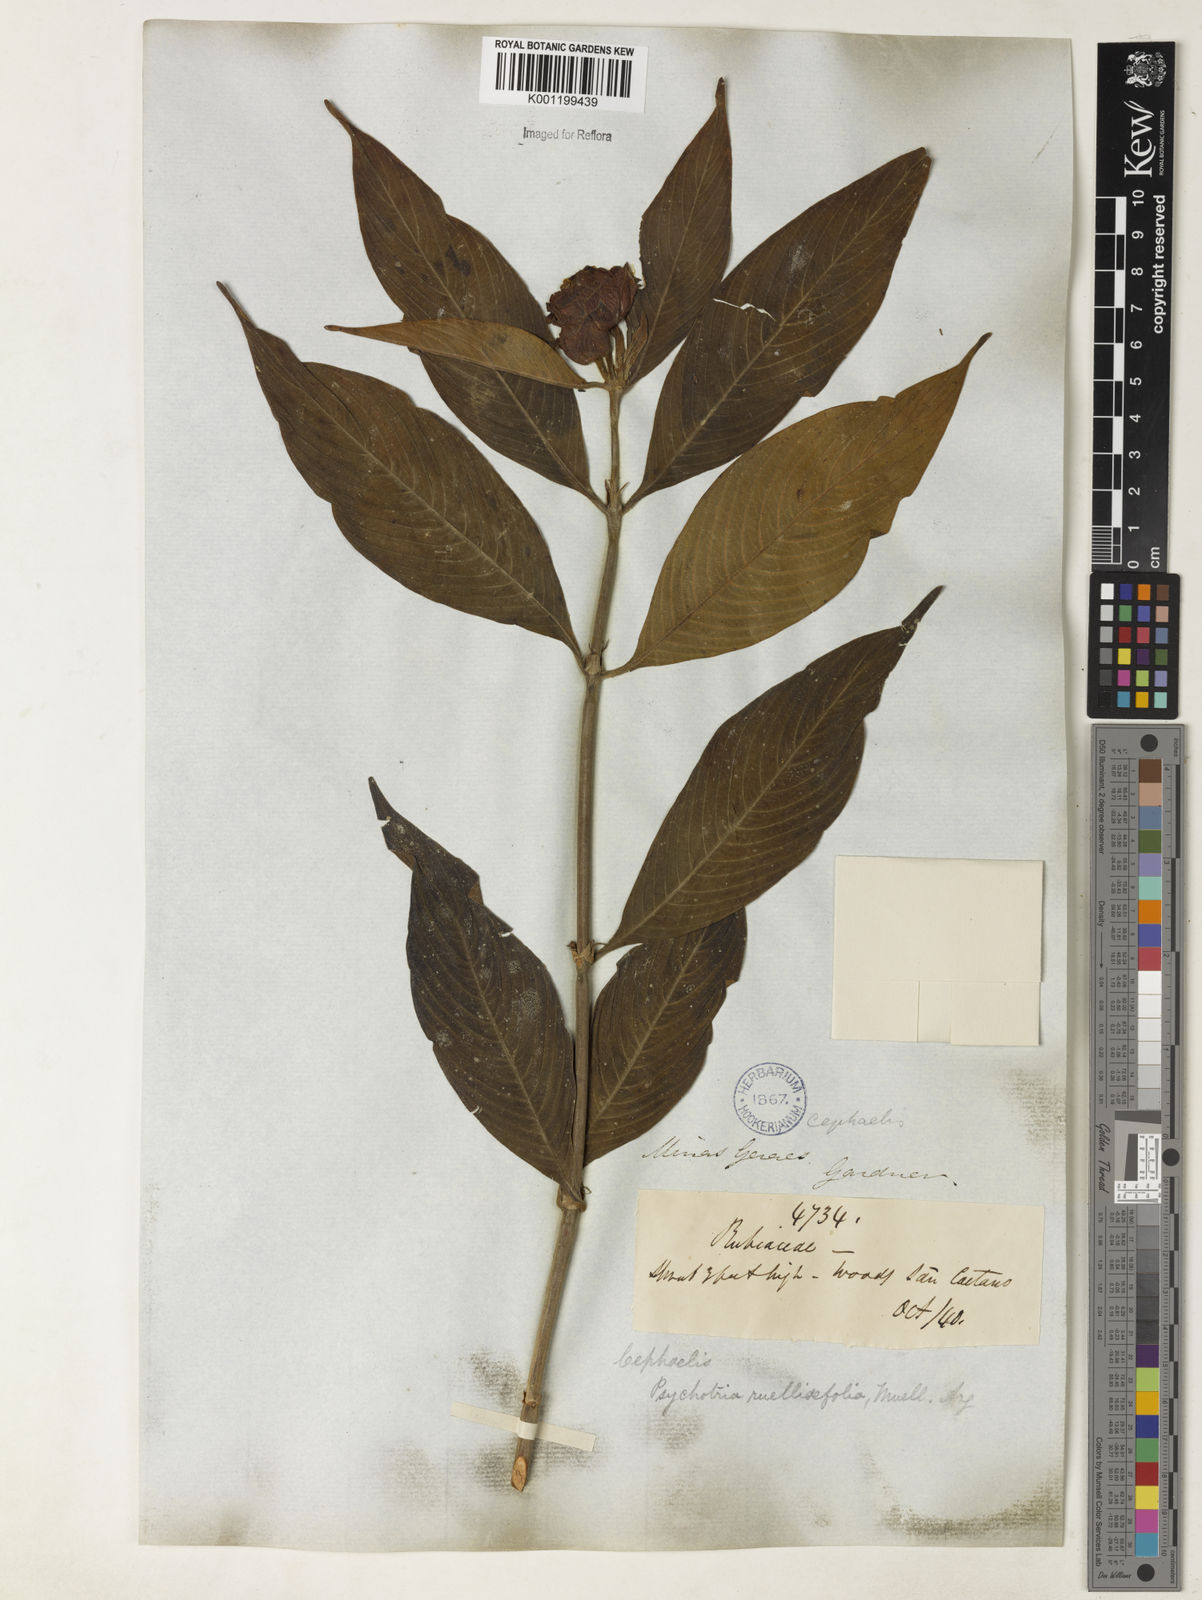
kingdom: Plantae
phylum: Tracheophyta
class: Magnoliopsida
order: Gentianales
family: Rubiaceae
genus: Psychotria
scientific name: Psychotria
